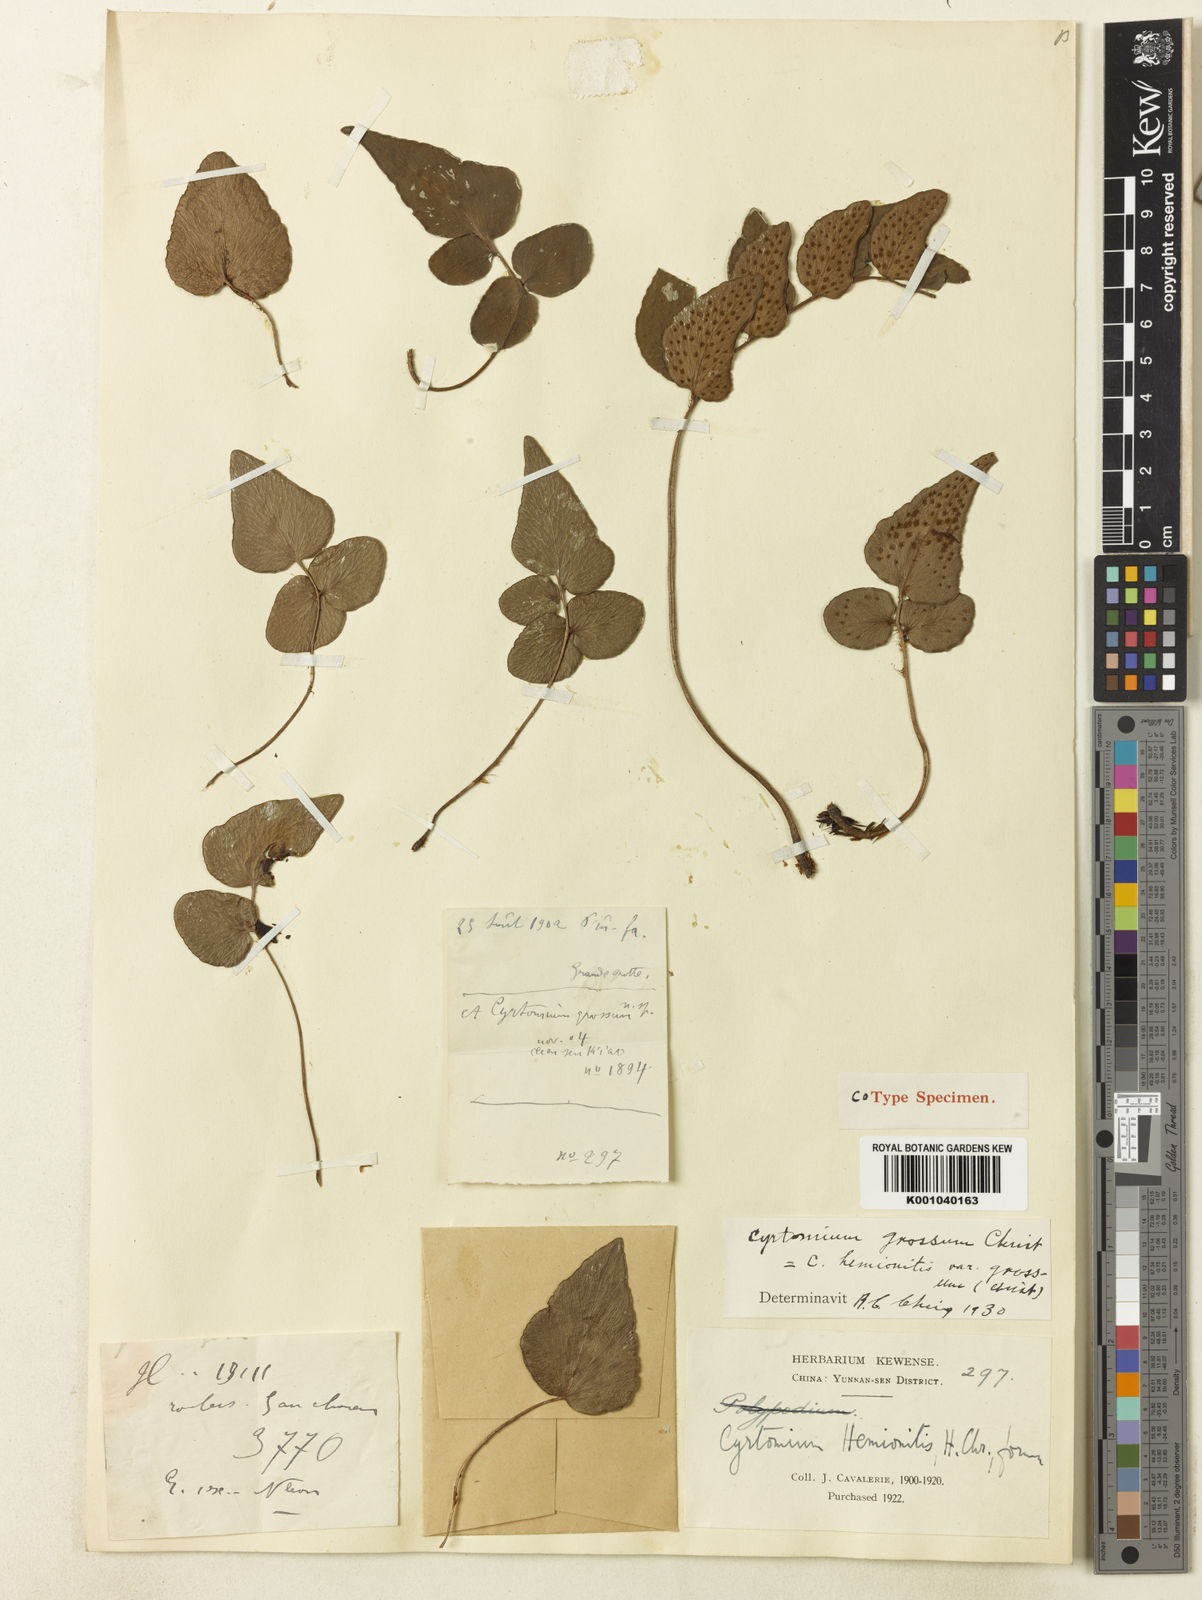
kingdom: Plantae
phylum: Tracheophyta
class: Polypodiopsida
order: Polypodiales
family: Dryopteridaceae
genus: Cyrtomium
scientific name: Cyrtomium grossum
